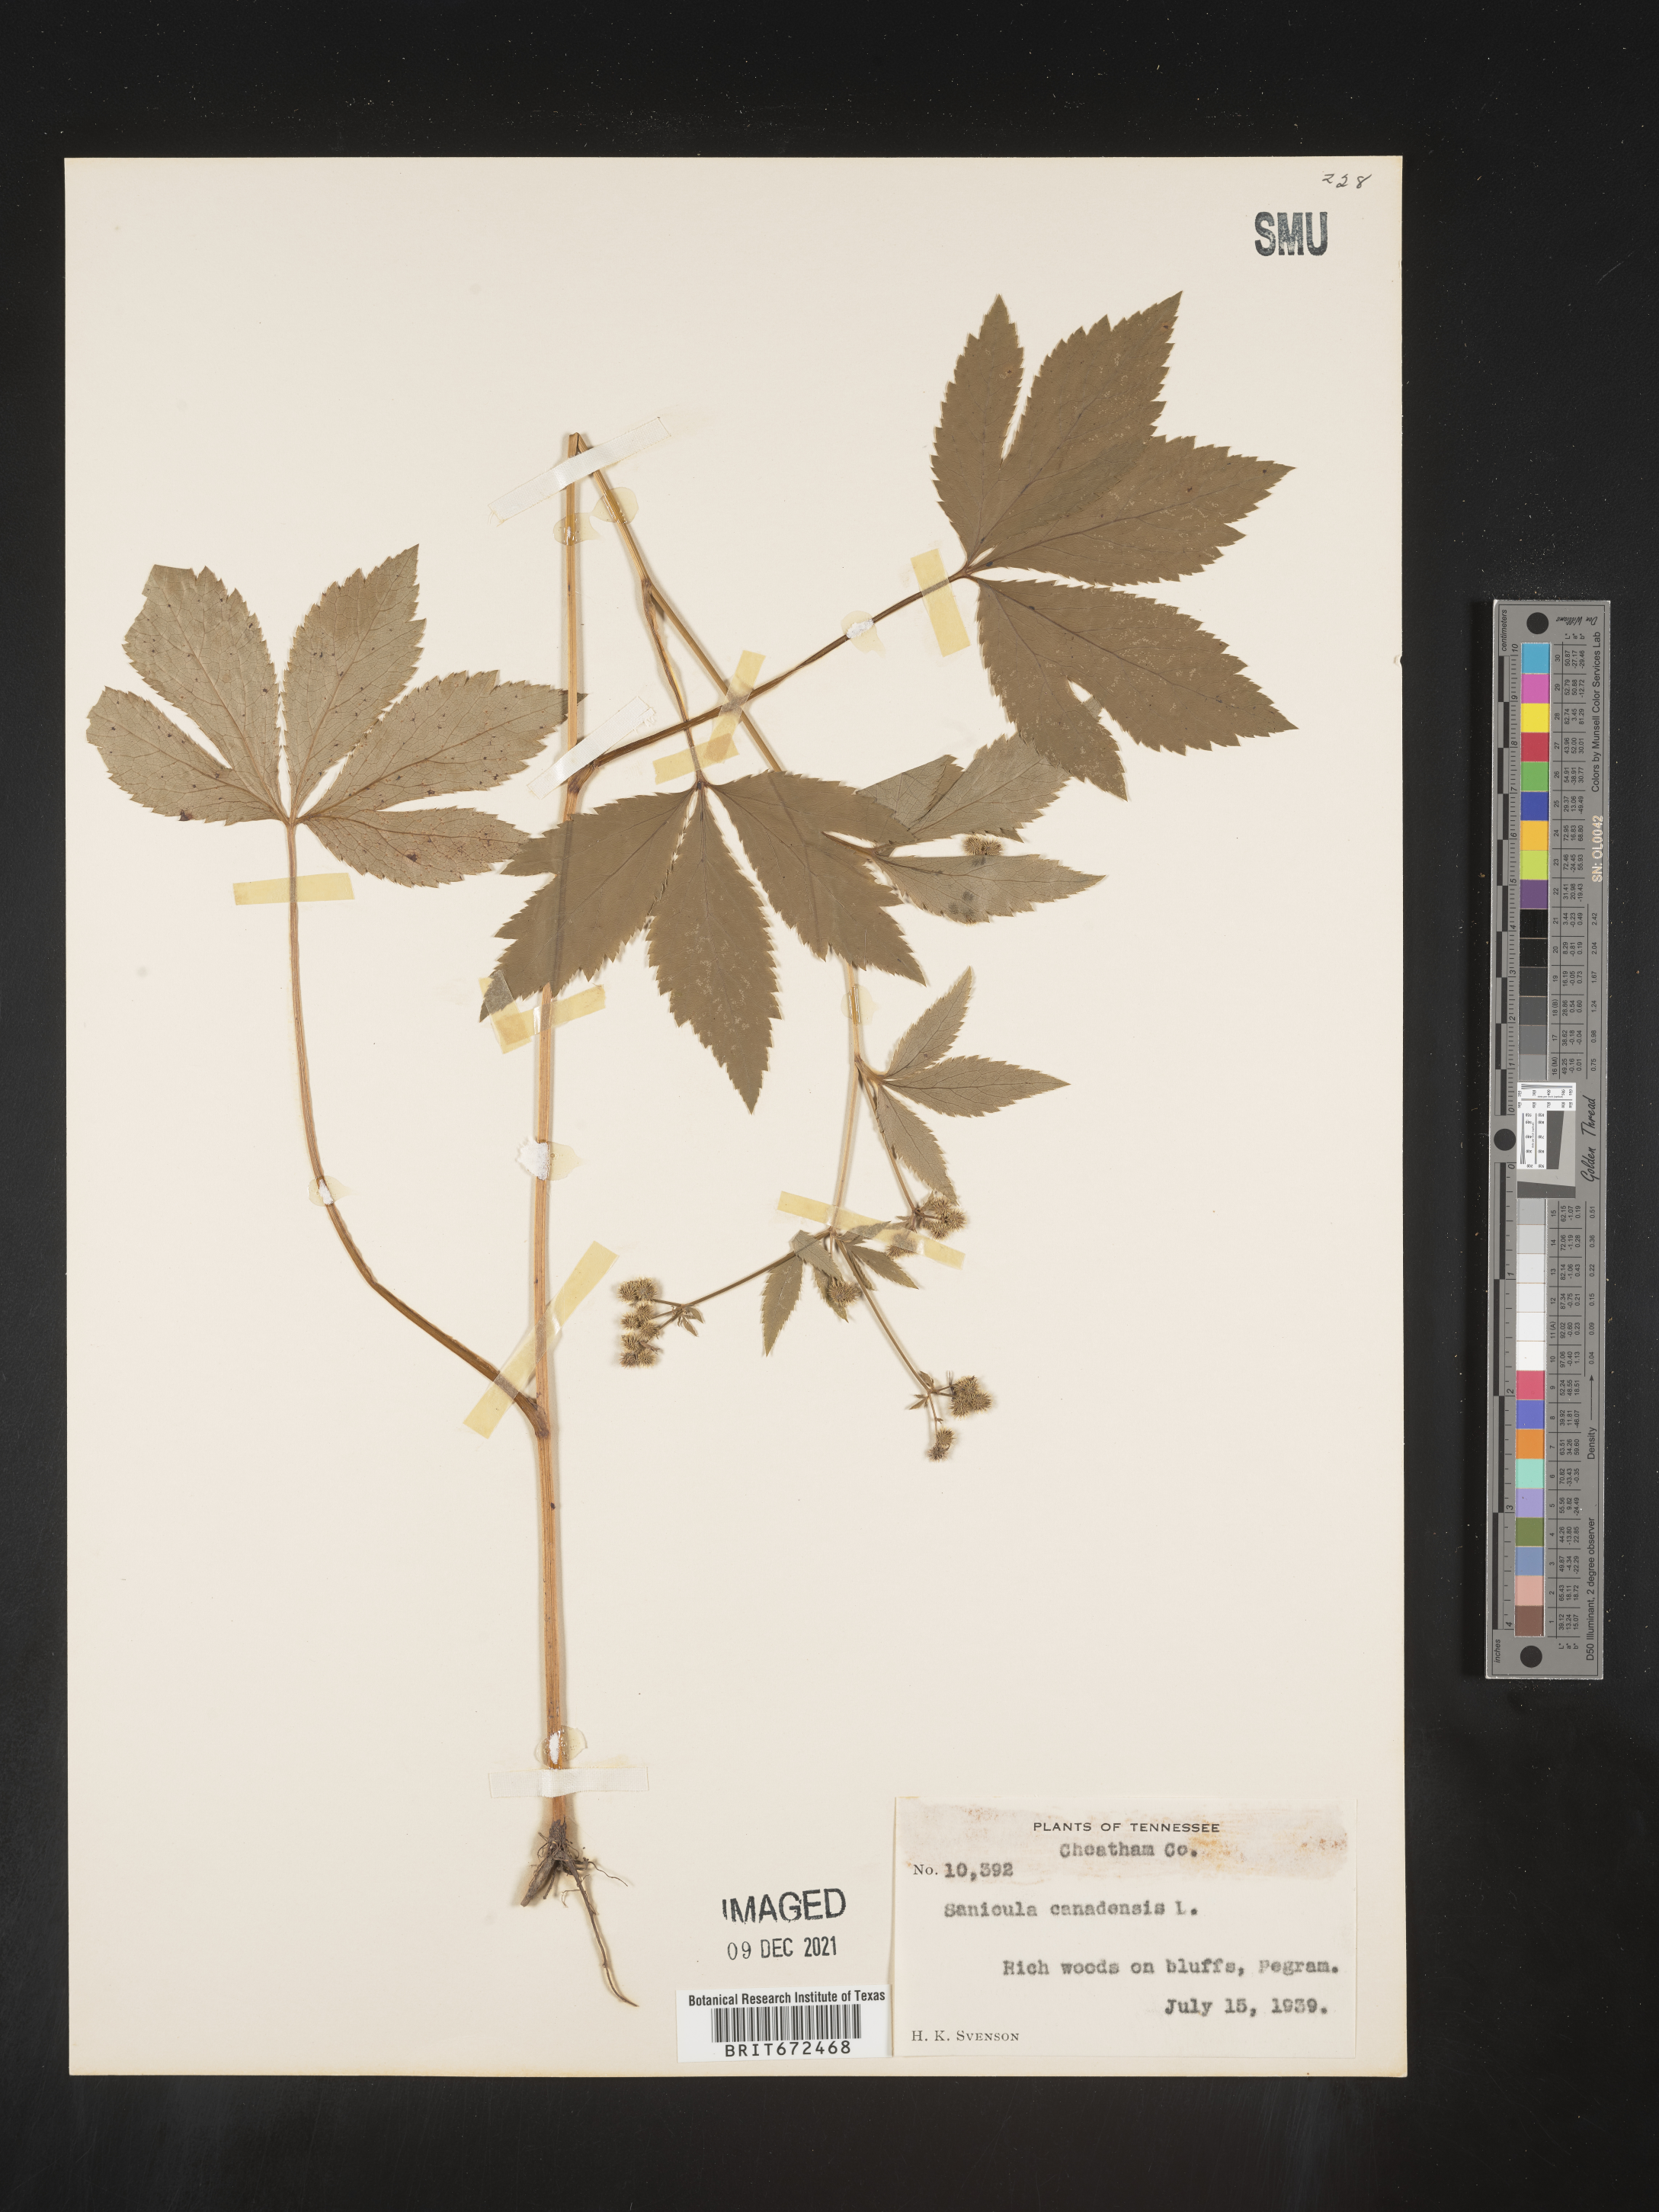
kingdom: Plantae
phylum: Tracheophyta
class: Magnoliopsida
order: Apiales
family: Apiaceae
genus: Sanicula
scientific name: Sanicula canadensis
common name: Canada sanicle
